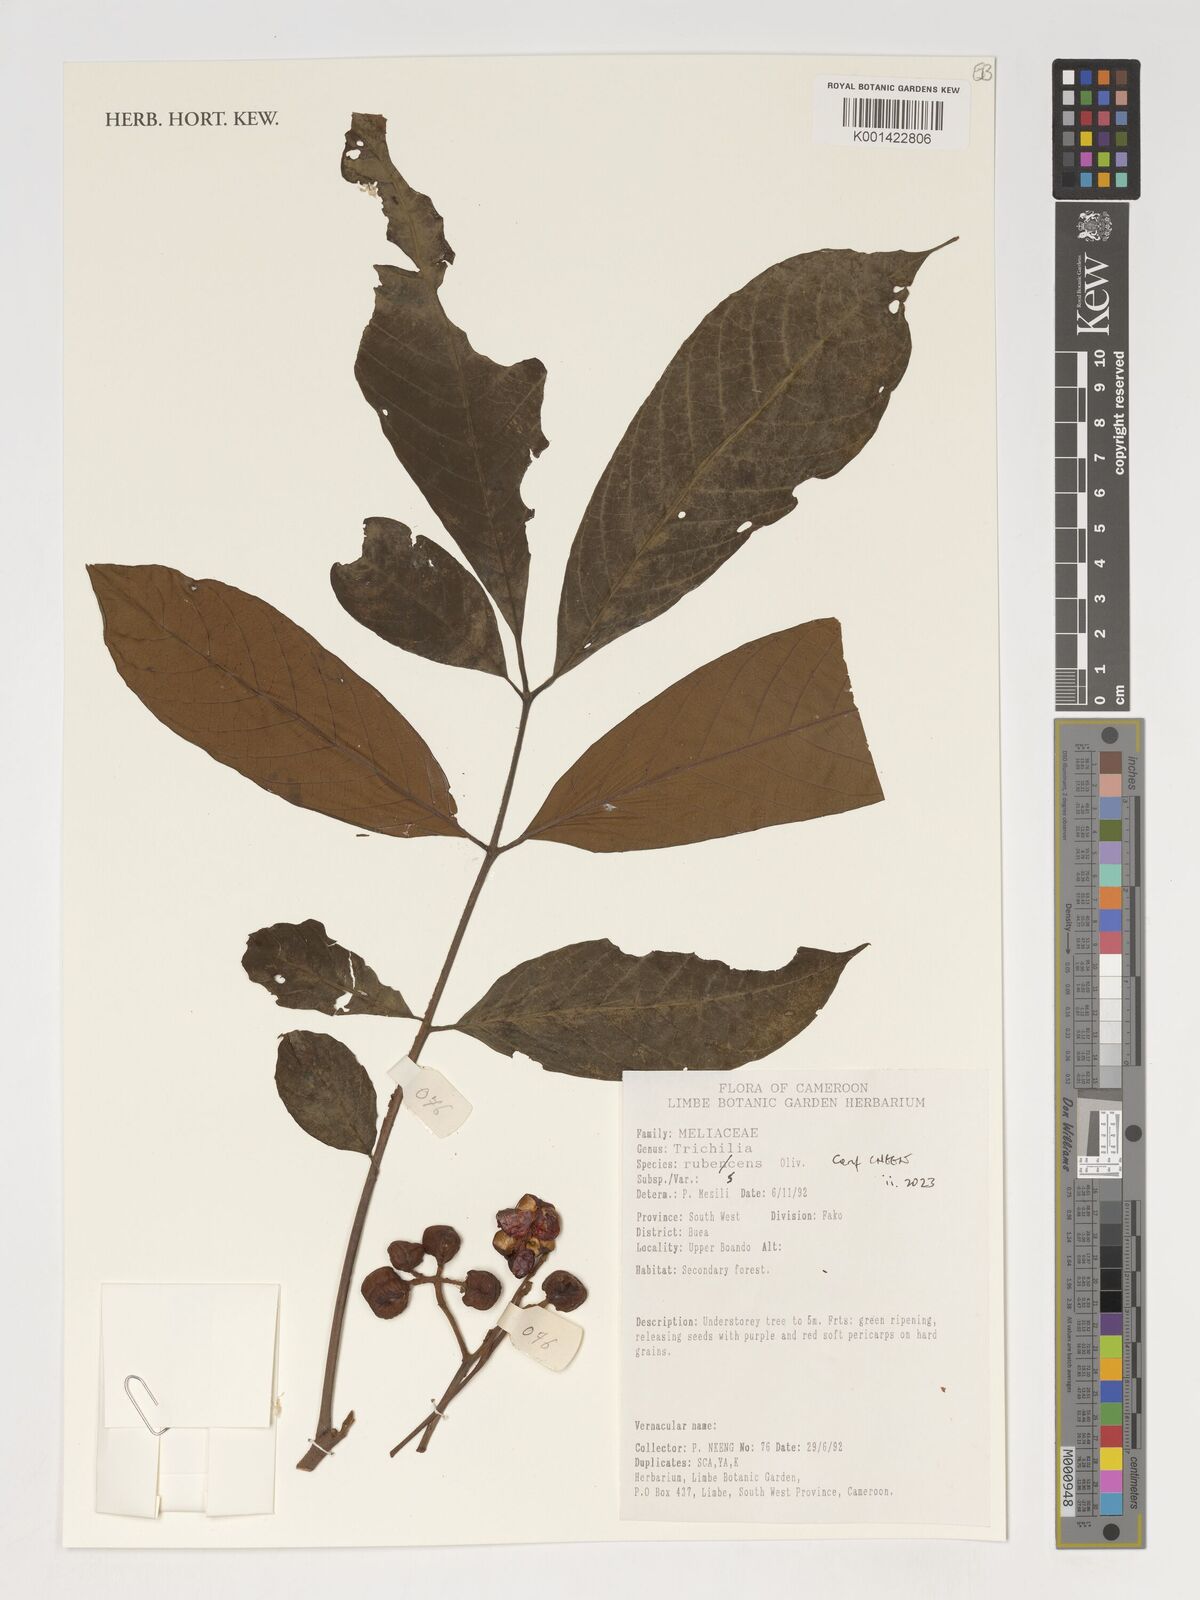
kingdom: Plantae
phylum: Tracheophyta
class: Magnoliopsida
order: Sapindales
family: Meliaceae
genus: Trichilia
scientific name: Trichilia rubescens
